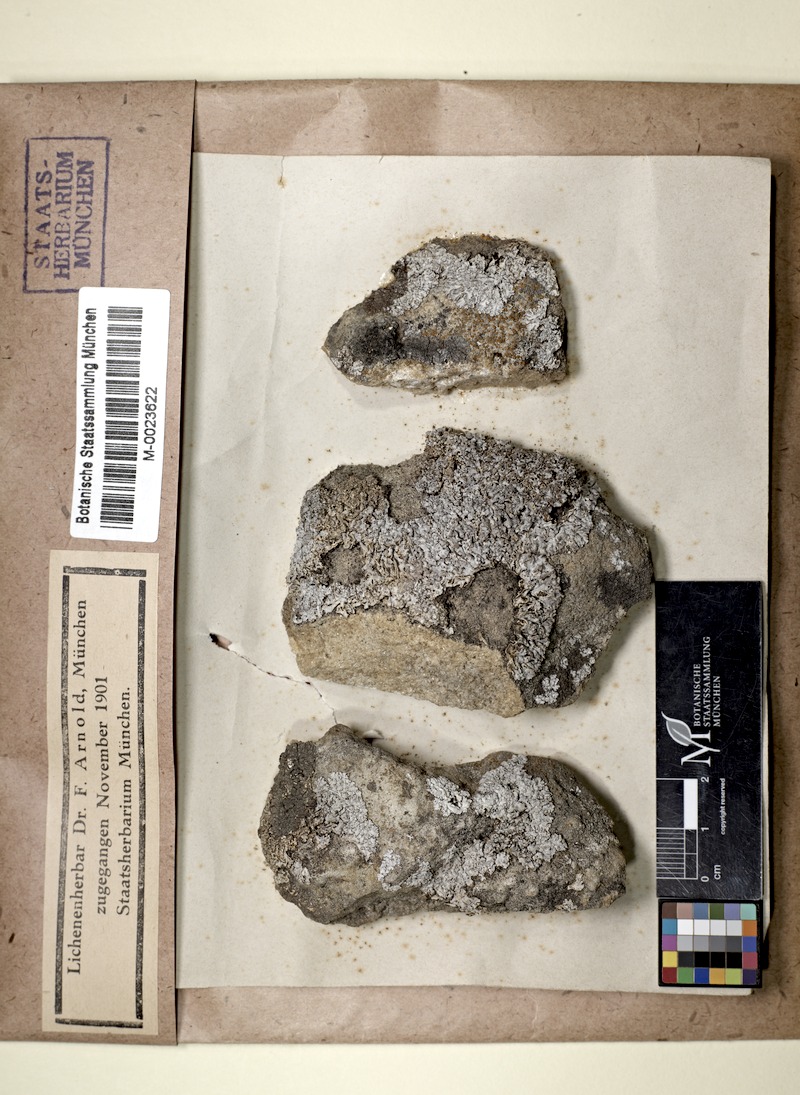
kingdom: Fungi
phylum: Ascomycota
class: Lecanoromycetes
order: Caliciales
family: Physciaceae
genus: Poeltonia
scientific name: Poeltonia grisea
